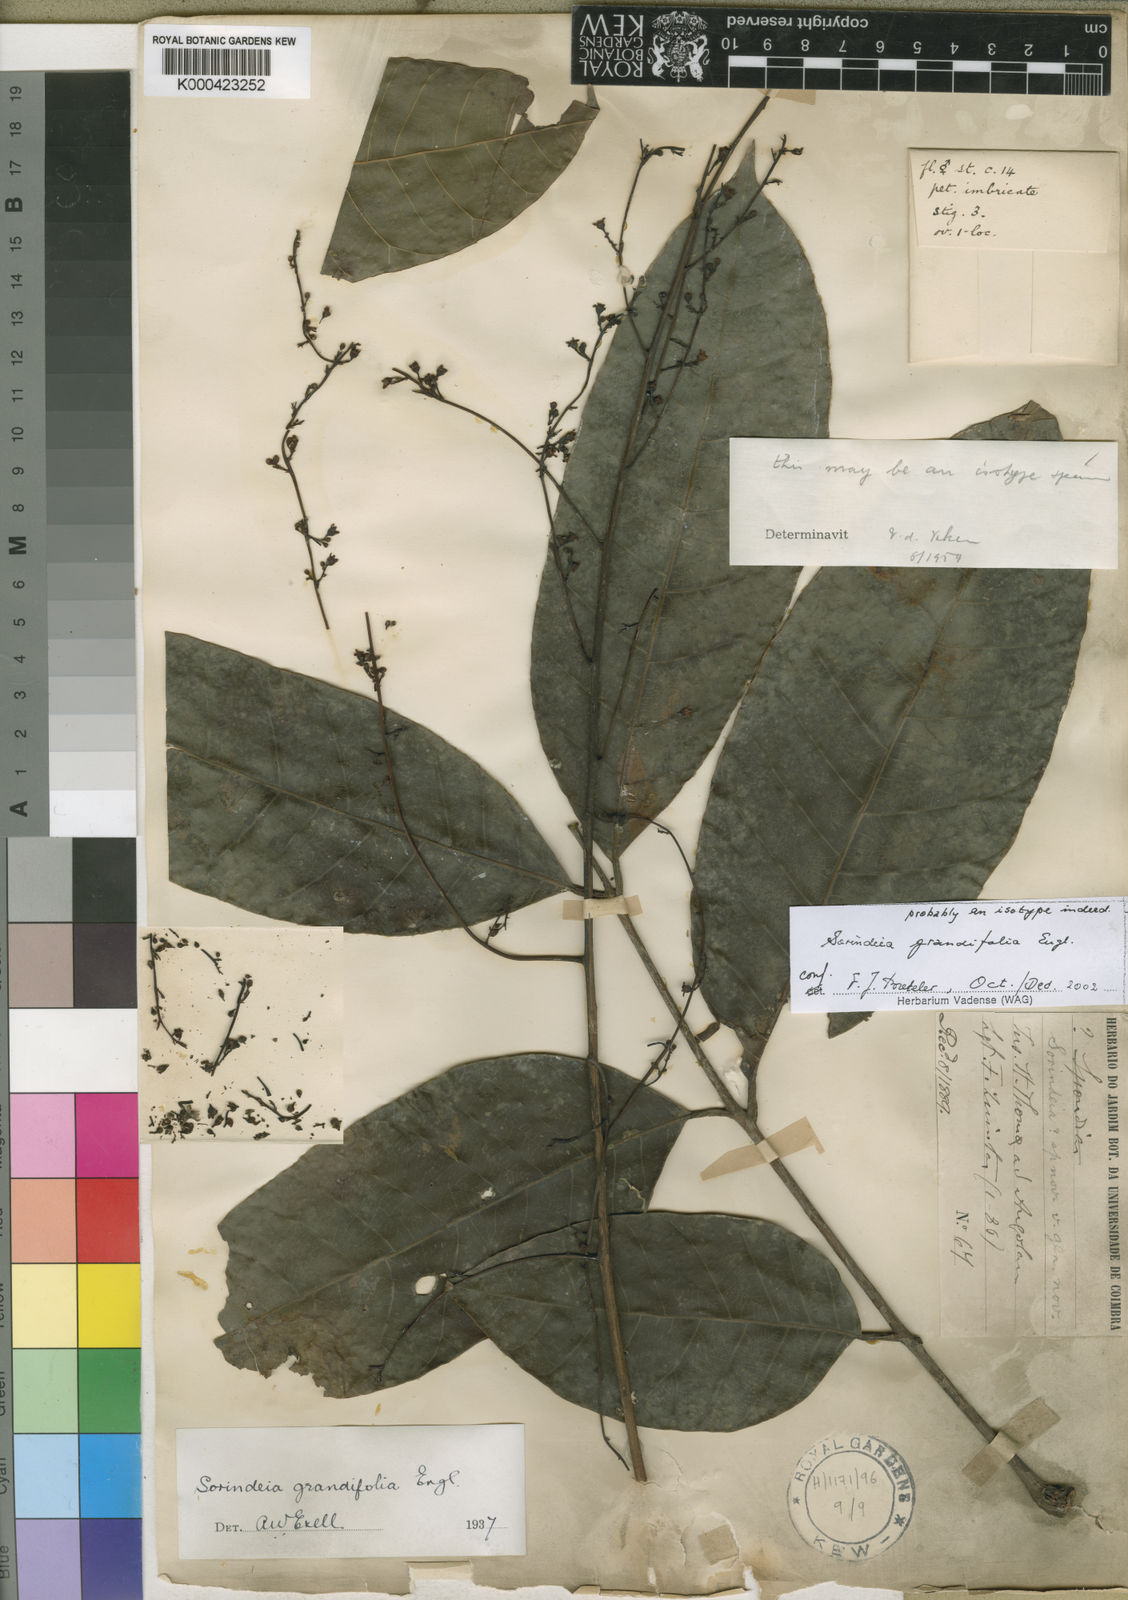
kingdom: Plantae
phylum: Tracheophyta
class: Magnoliopsida
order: Sapindales
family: Anacardiaceae
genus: Sorindeia
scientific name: Sorindeia grandifolia
